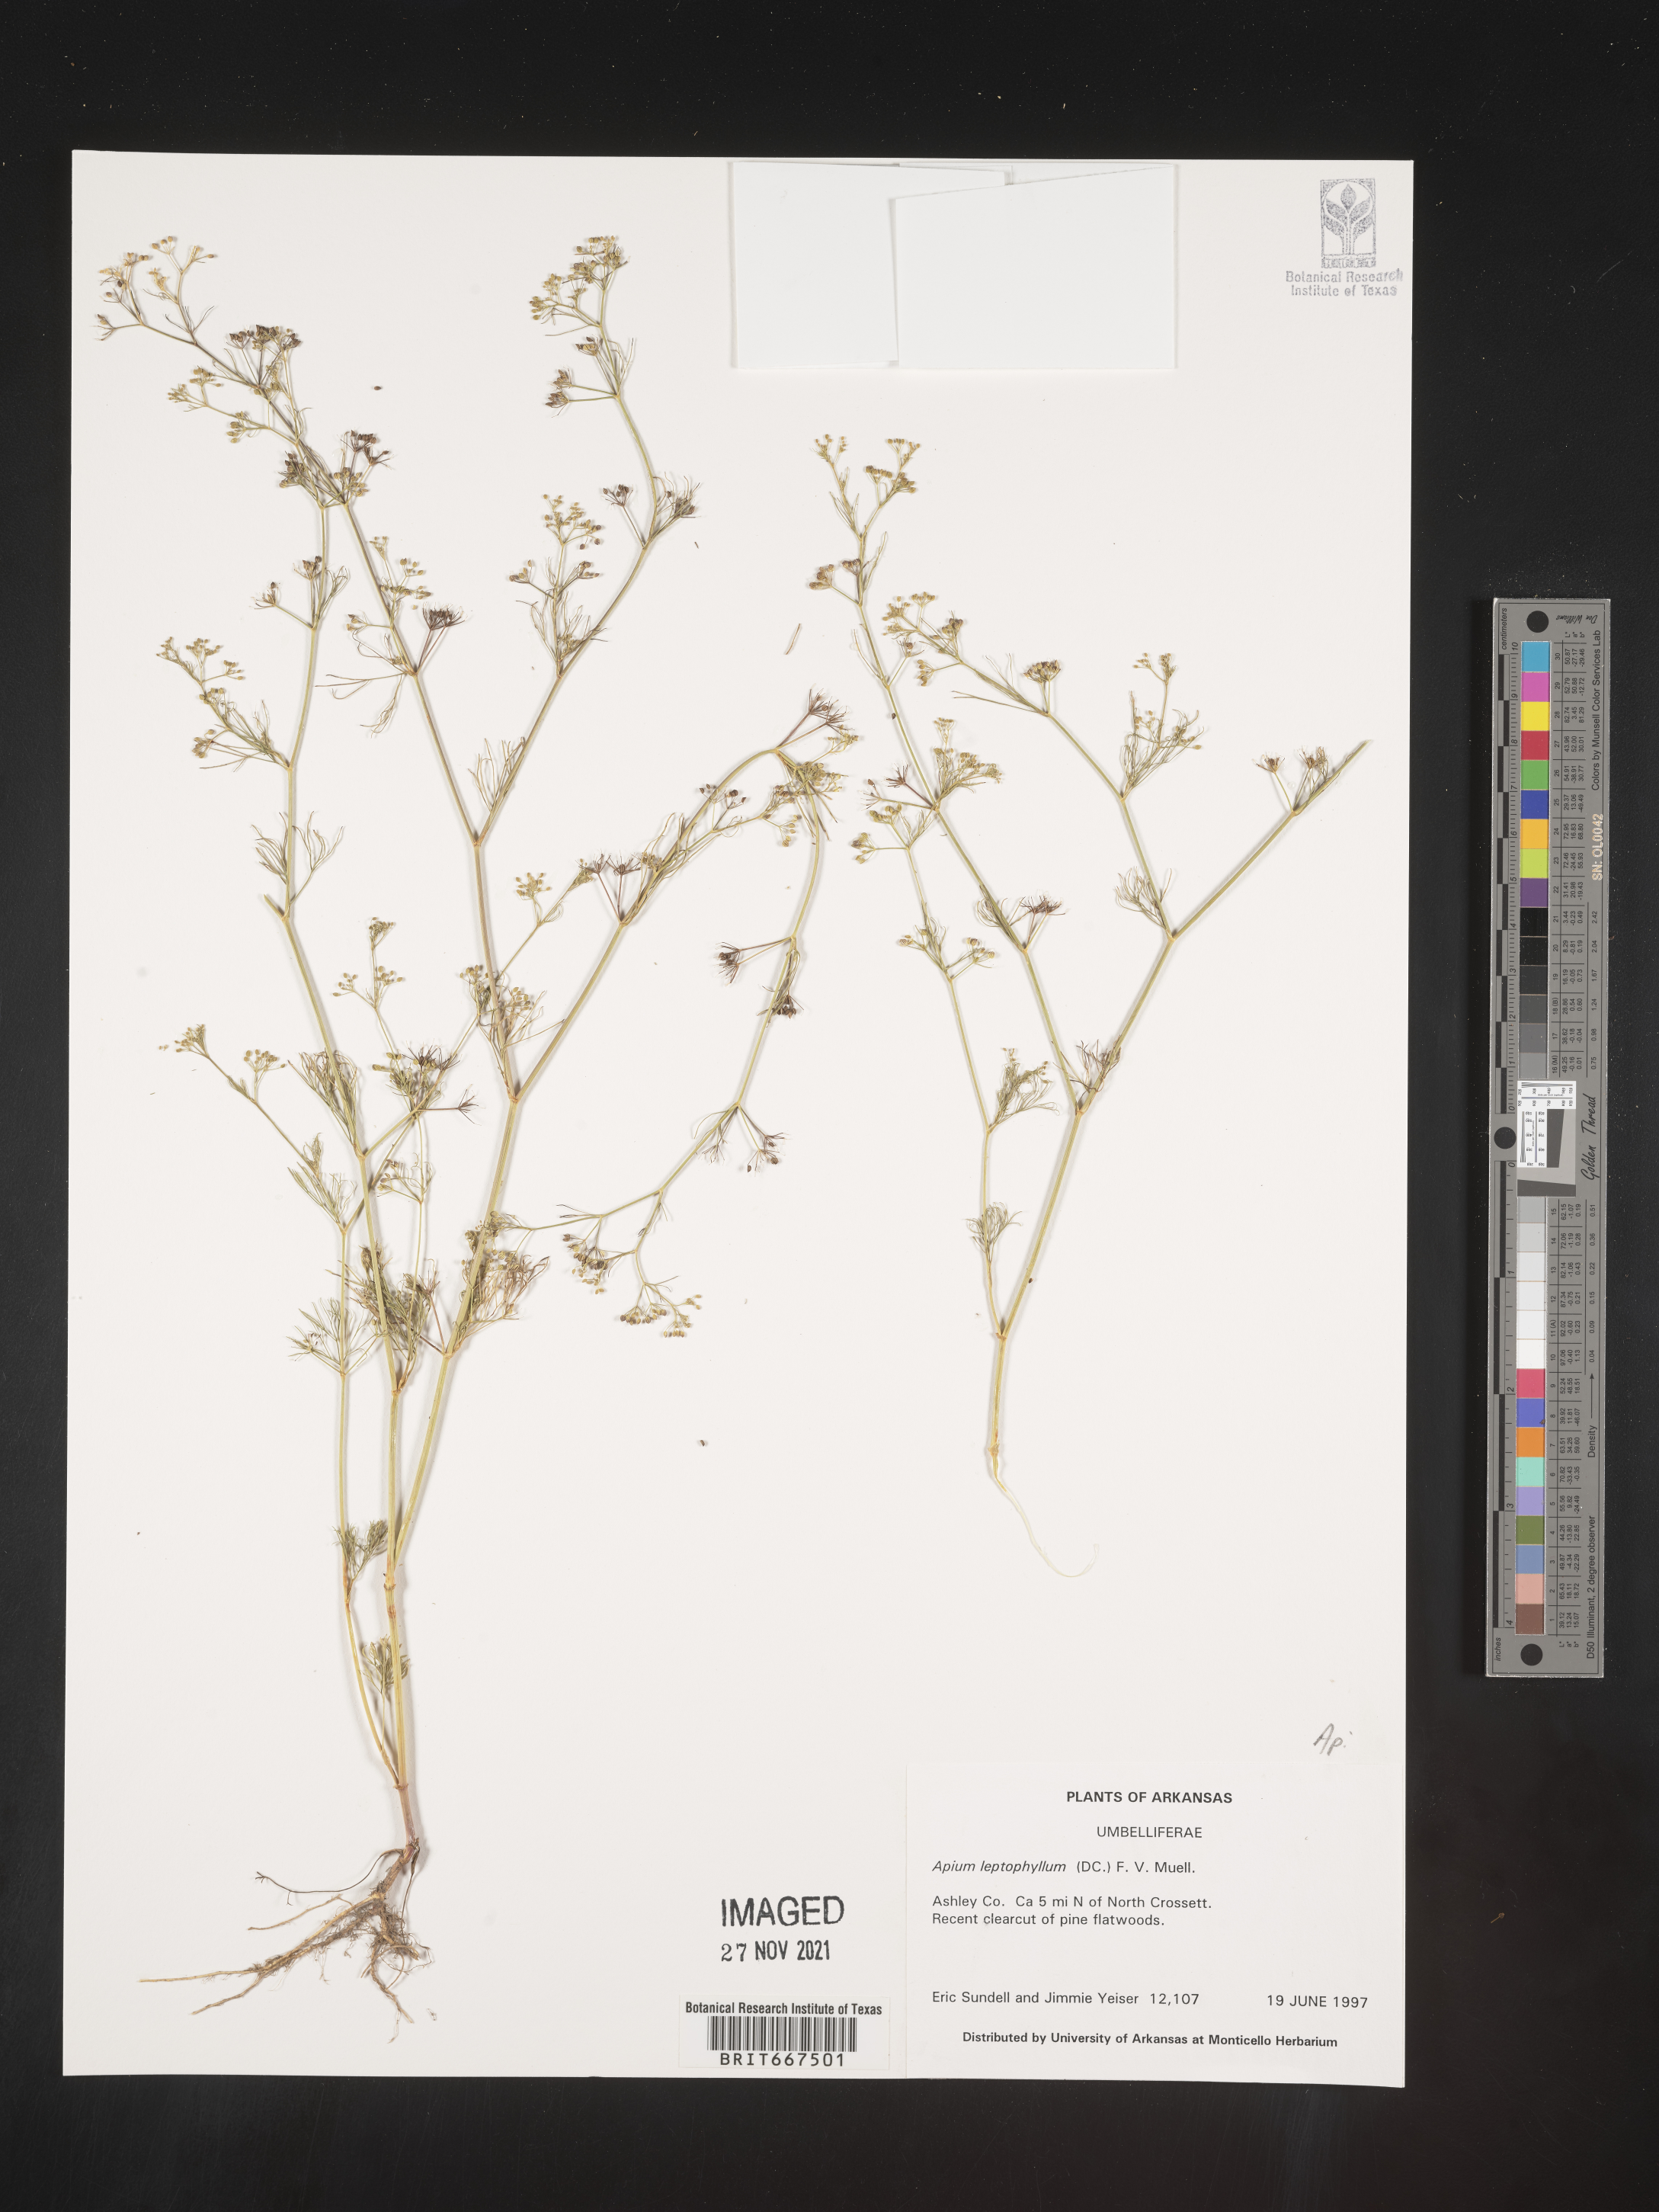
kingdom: Plantae
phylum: Tracheophyta
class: Magnoliopsida
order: Apiales
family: Apiaceae
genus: Apium
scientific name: Apium
